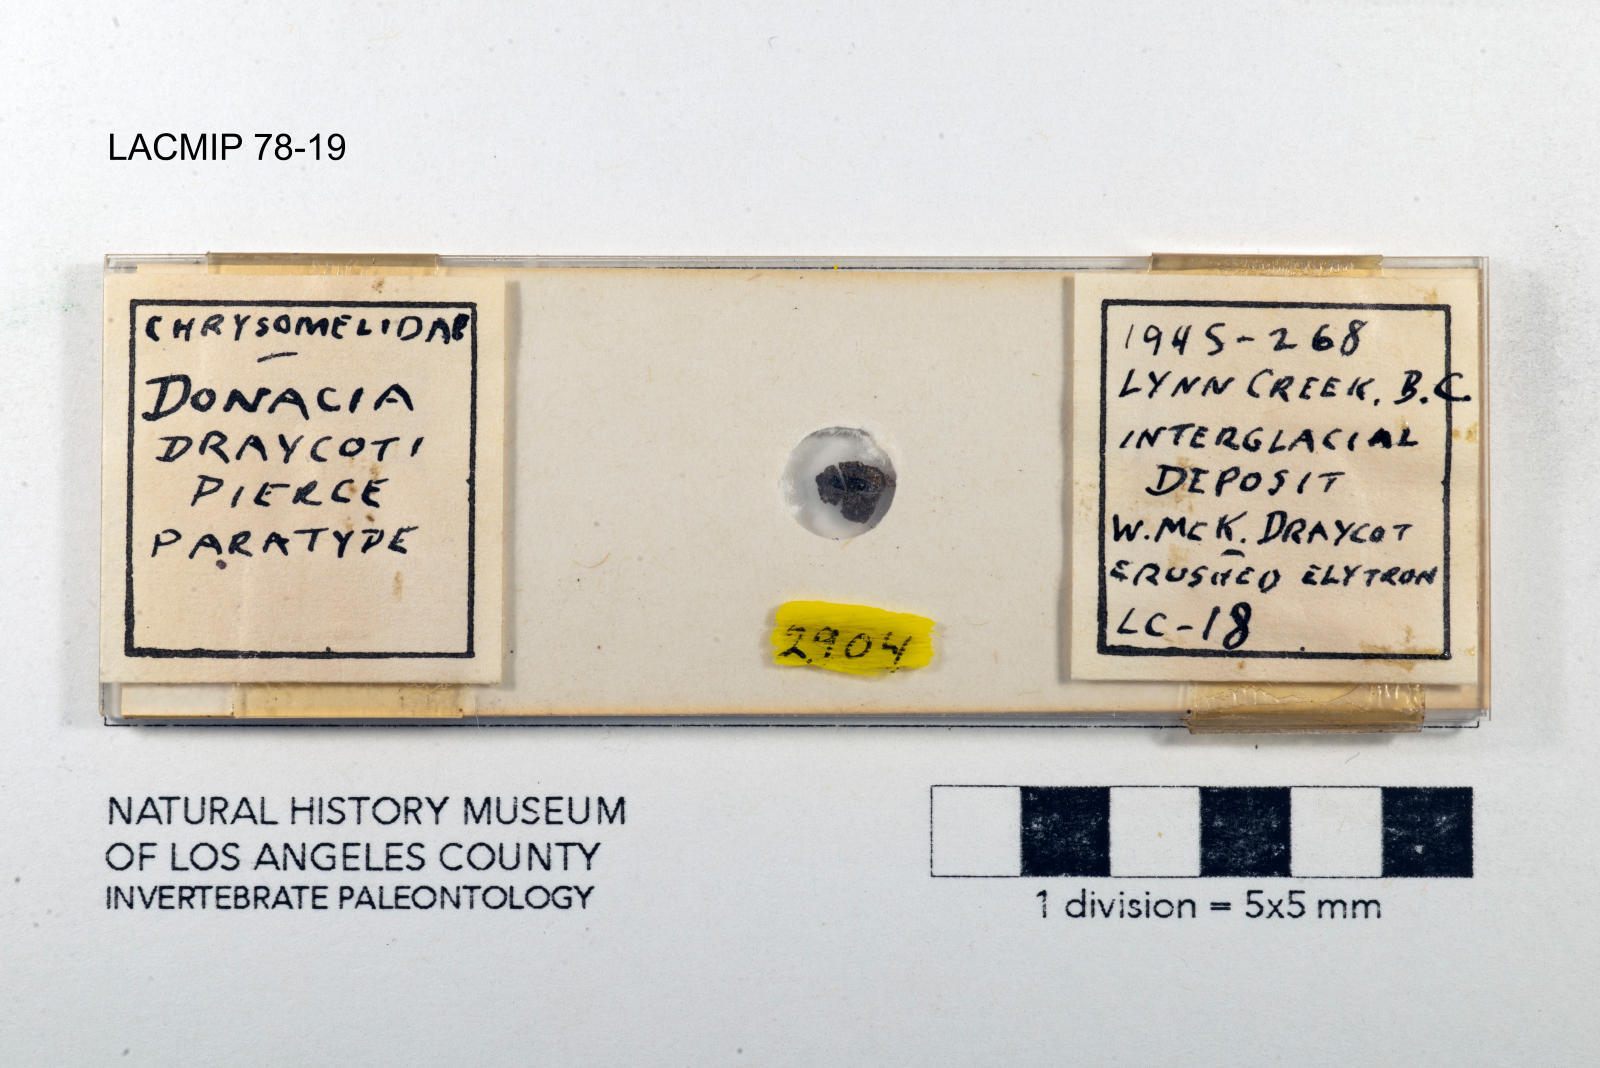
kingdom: Animalia
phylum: Arthropoda
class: Insecta
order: Coleoptera
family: Chrysomelidae
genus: Donacia
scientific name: Donacia draycoti
